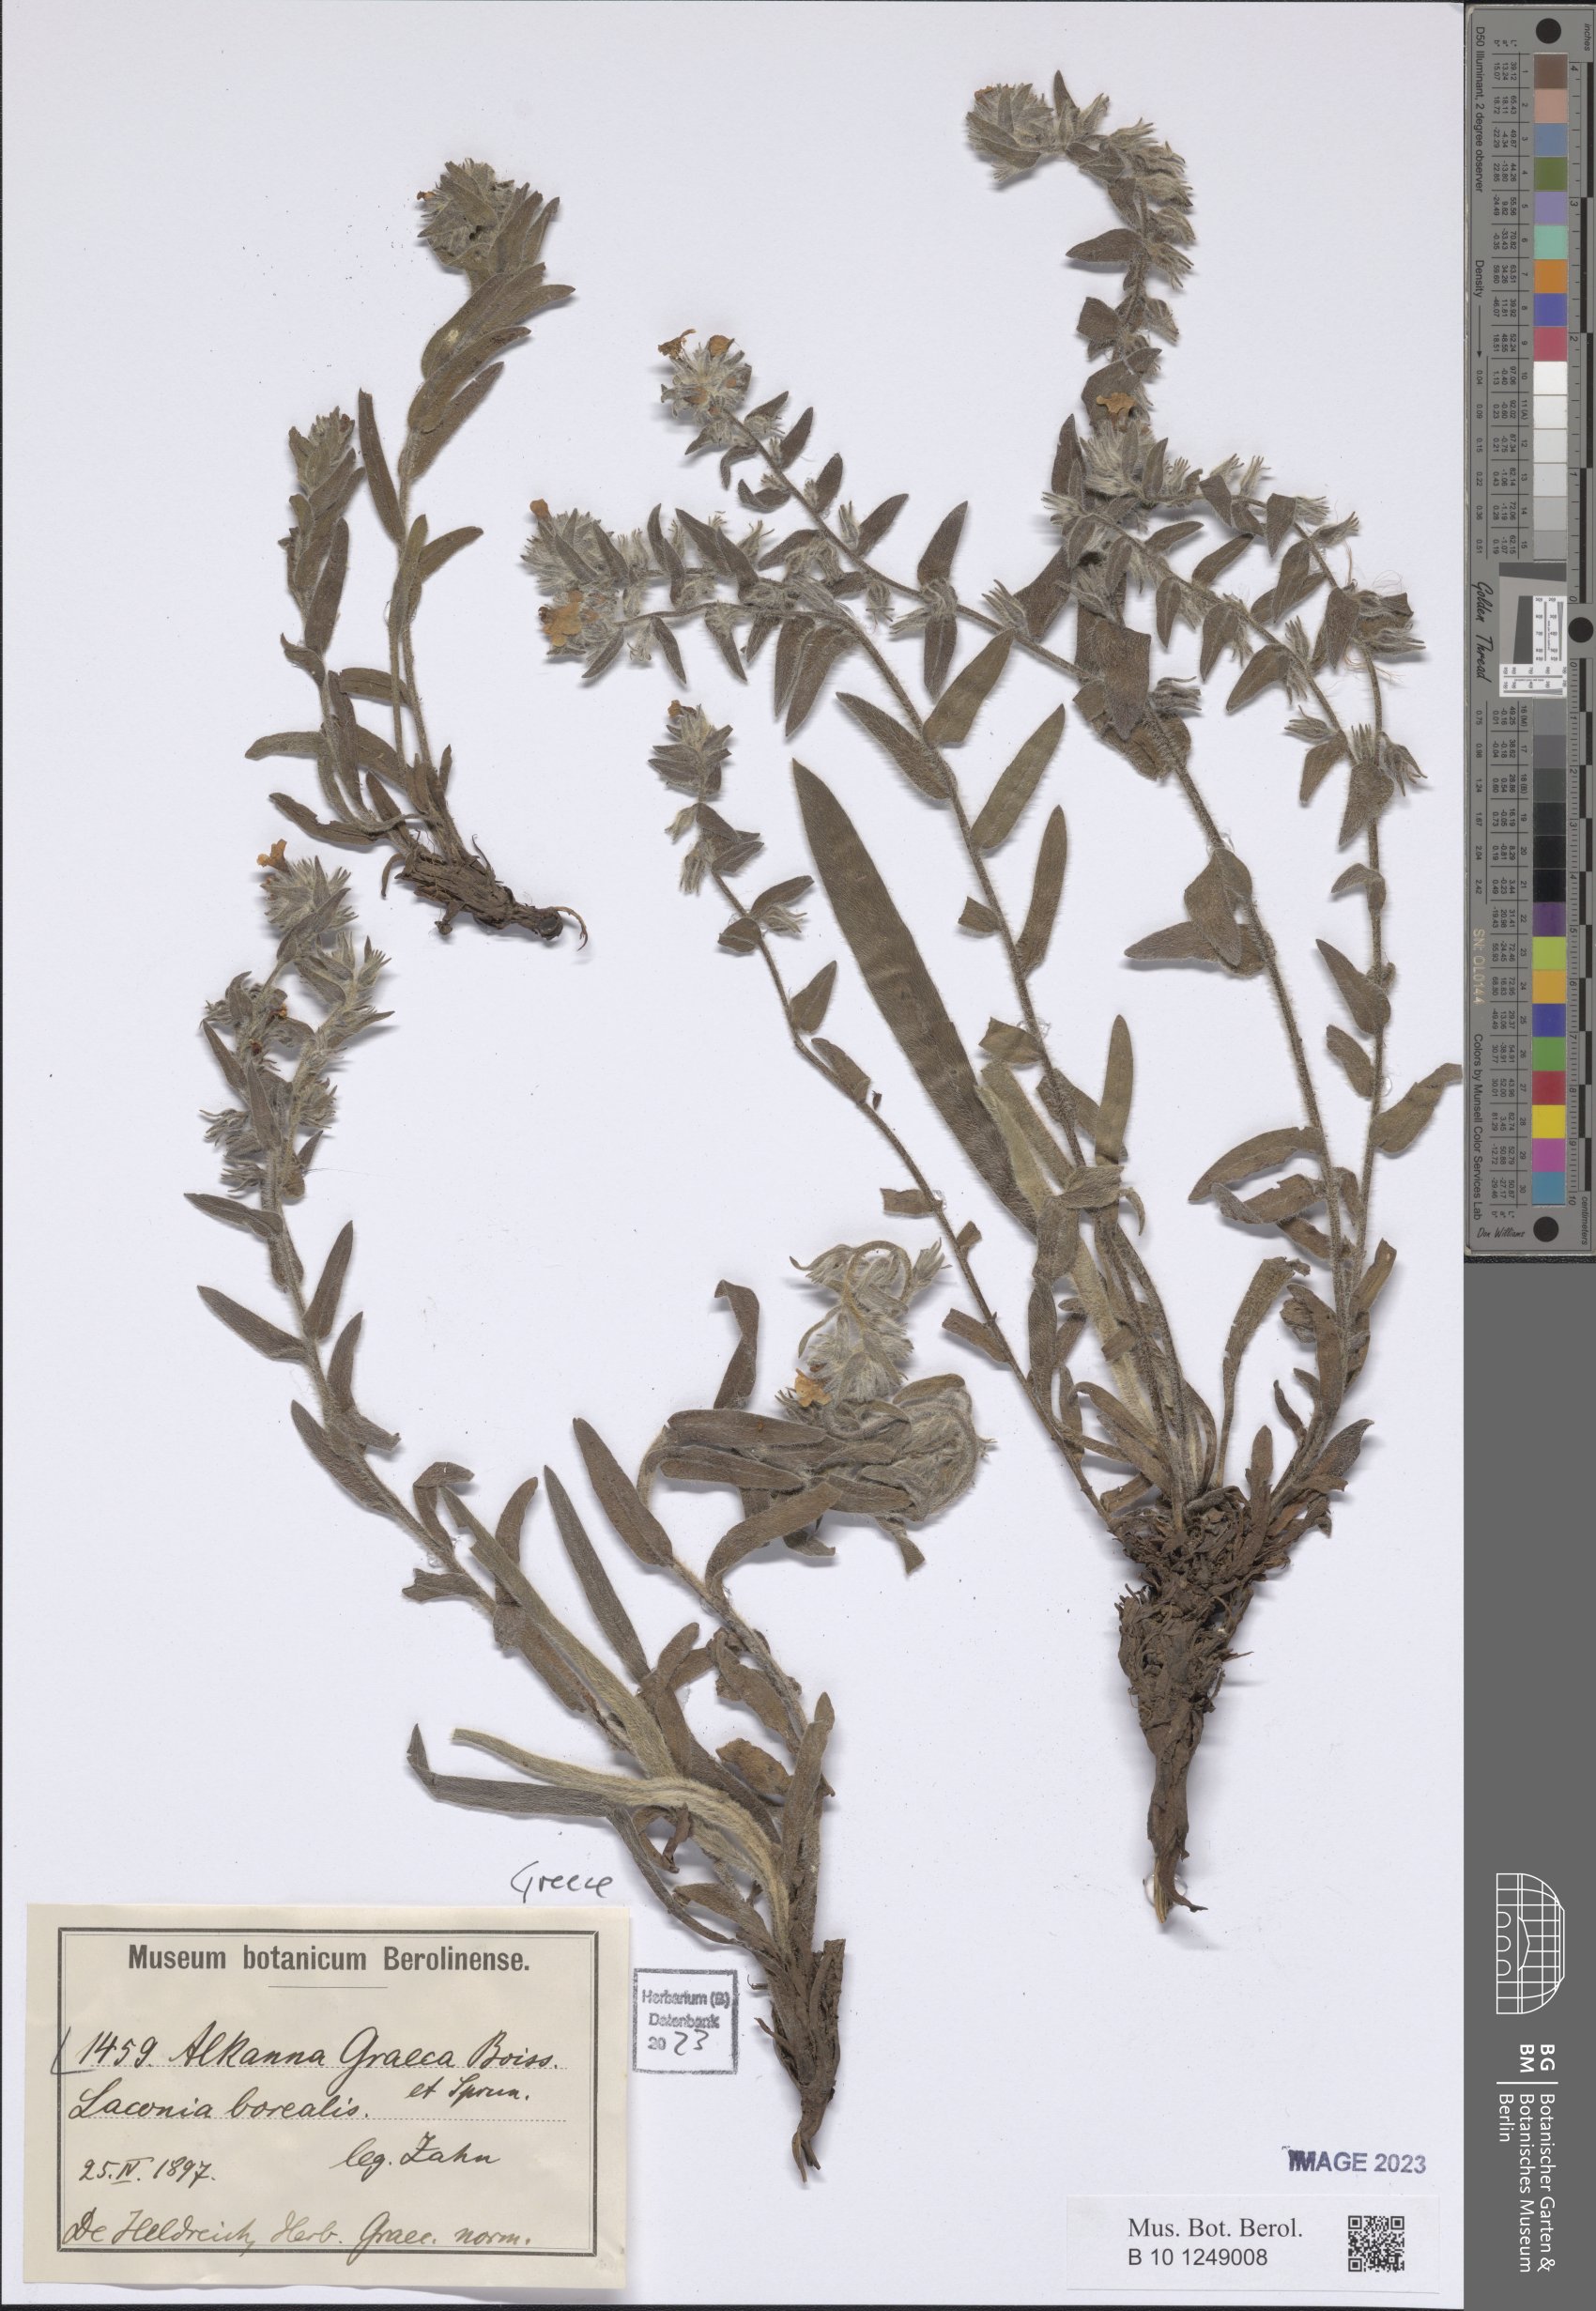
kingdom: Plantae
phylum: Tracheophyta
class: Magnoliopsida
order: Boraginales
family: Boraginaceae
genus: Alkanna
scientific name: Alkanna graeca
